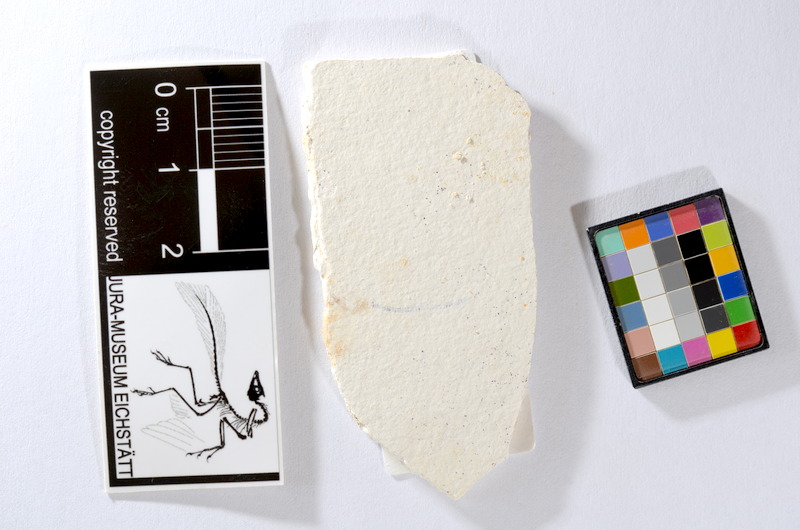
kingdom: Animalia
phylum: Chordata
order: Salmoniformes
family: Orthogonikleithridae
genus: Orthogonikleithrus
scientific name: Orthogonikleithrus hoelli
